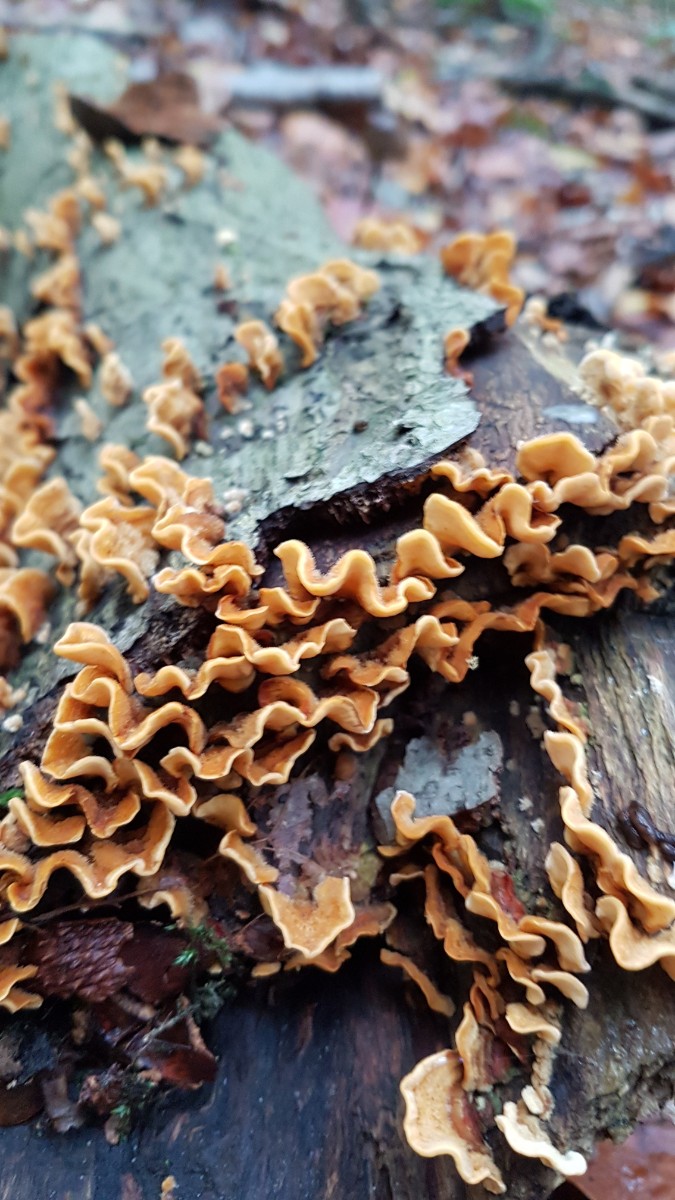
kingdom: Fungi
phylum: Basidiomycota
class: Agaricomycetes
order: Russulales
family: Stereaceae
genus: Stereum
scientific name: Stereum hirsutum
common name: håret lædersvamp
